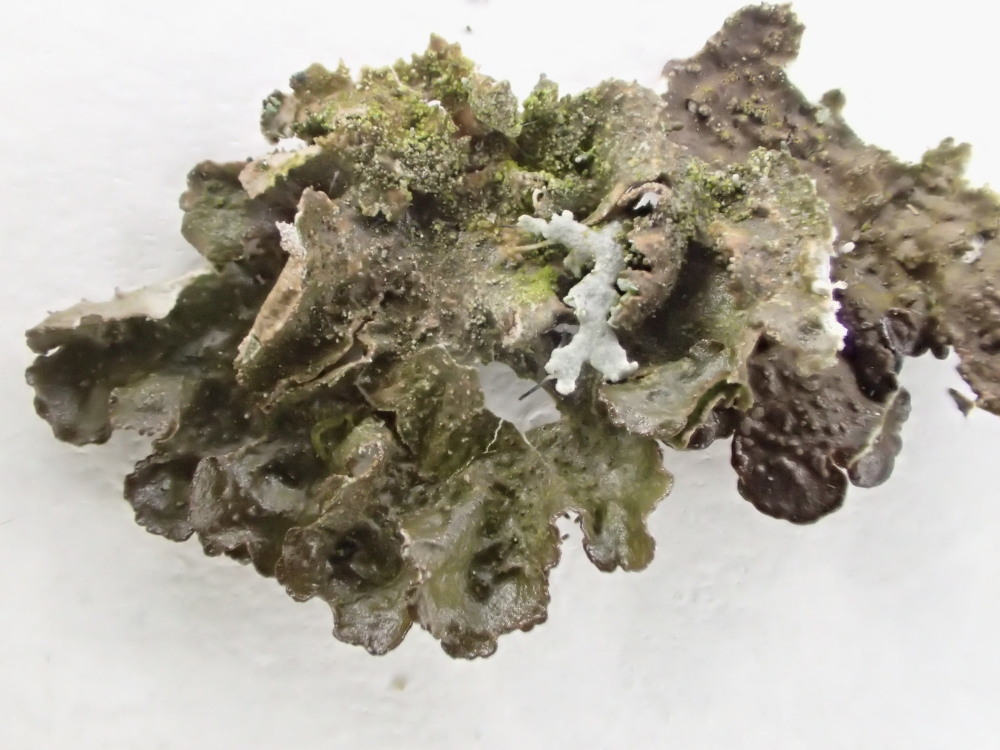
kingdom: Fungi
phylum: Ascomycota
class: Lecanoromycetes
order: Lecanorales
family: Parmeliaceae
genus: Melanohalea
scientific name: Melanohalea exasperatula
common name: kølle-skållav
